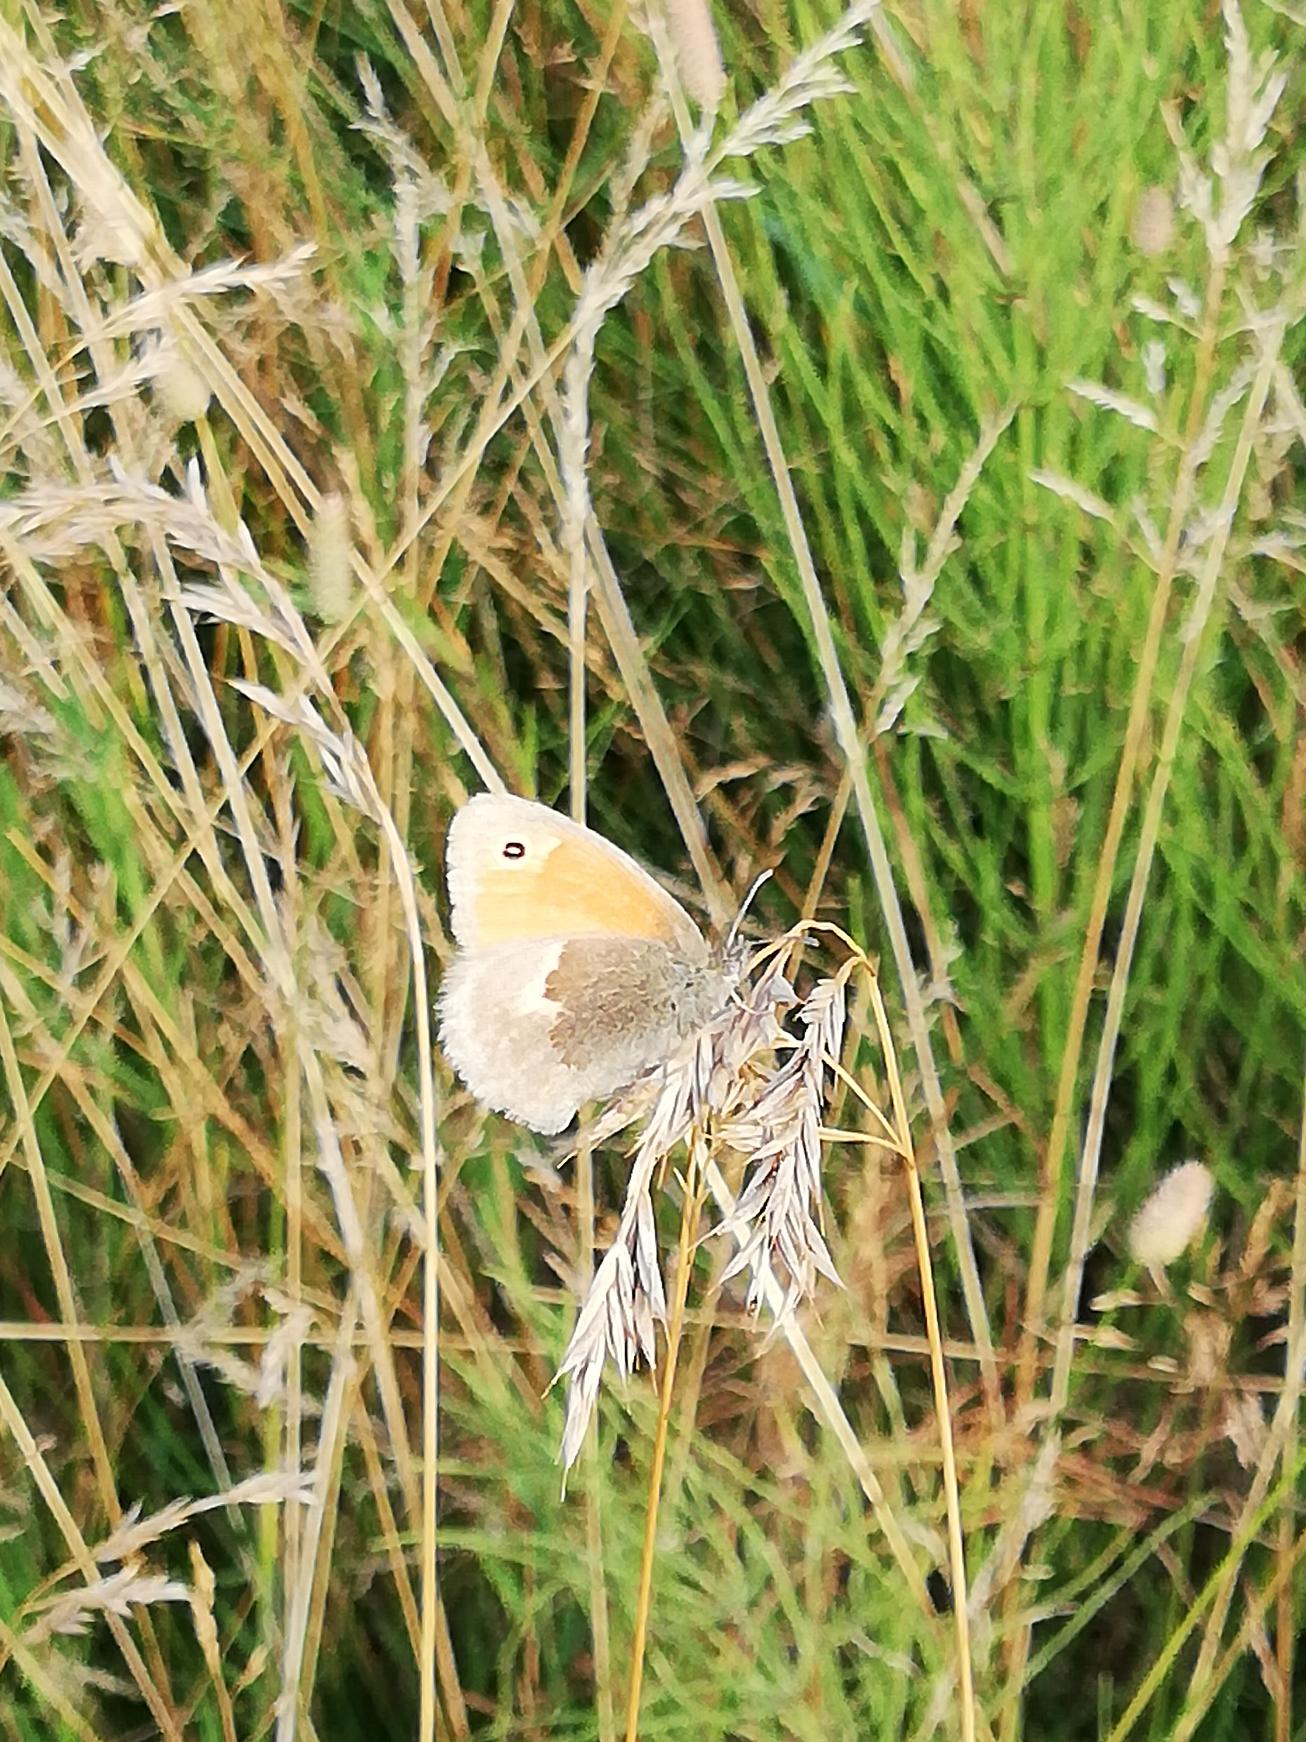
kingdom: Animalia
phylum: Arthropoda
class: Insecta
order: Lepidoptera
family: Nymphalidae
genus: Coenonympha
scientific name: Coenonympha pamphilus
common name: Okkergul randøje
